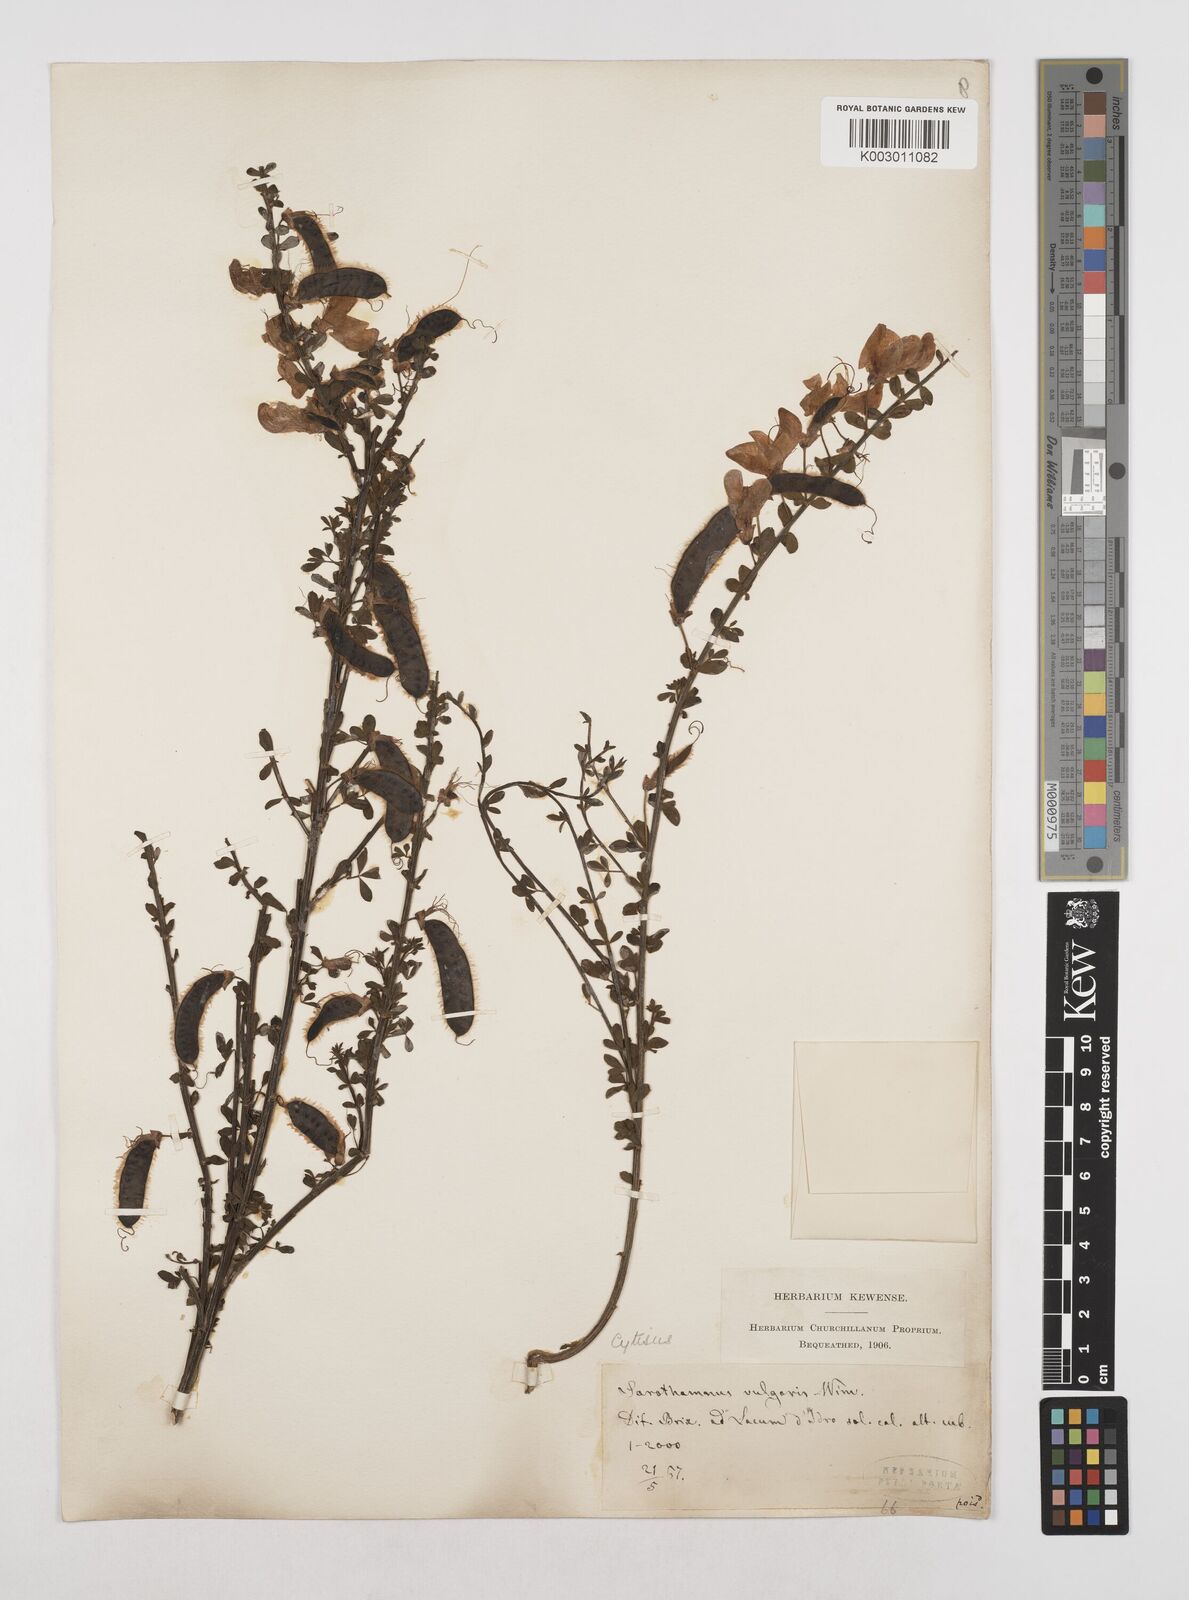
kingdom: Plantae
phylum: Tracheophyta
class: Magnoliopsida
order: Fabales
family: Fabaceae
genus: Cytisus
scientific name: Cytisus scoparius
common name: Scotch broom
